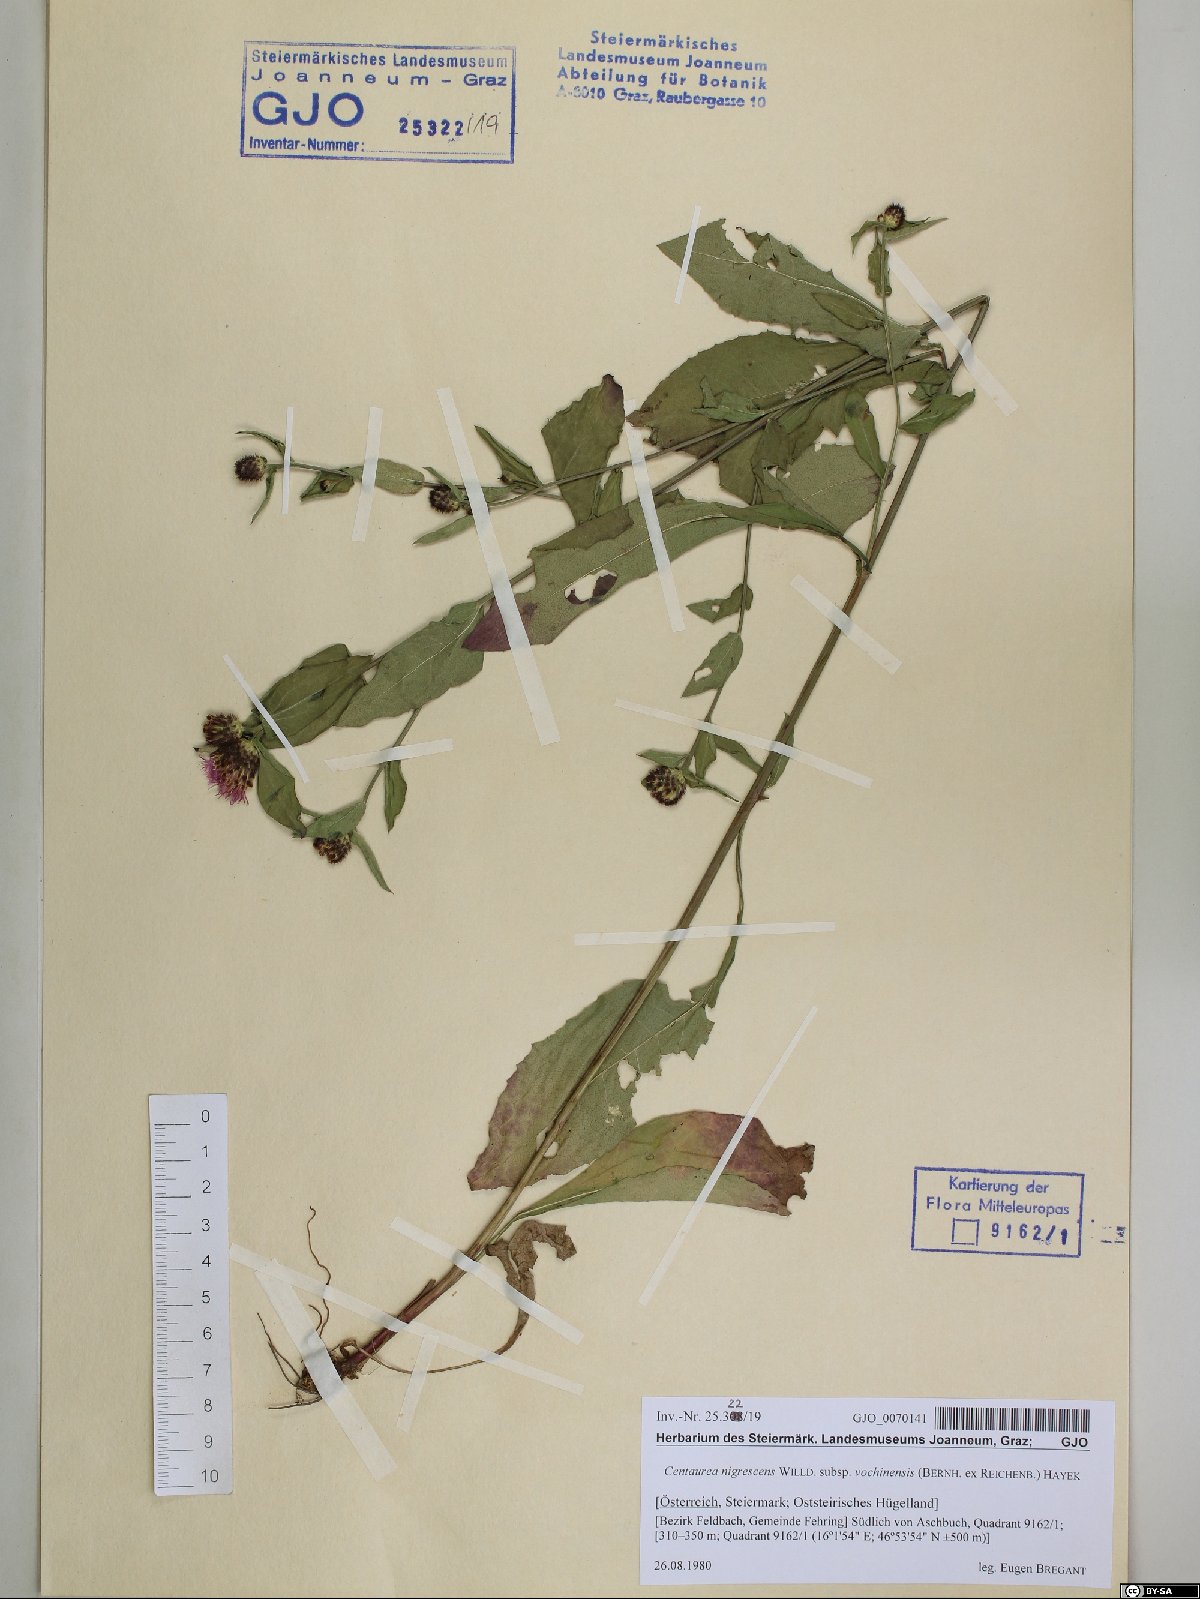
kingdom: Plantae
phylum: Tracheophyta
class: Magnoliopsida
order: Asterales
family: Asteraceae
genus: Centaurea
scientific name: Centaurea carniolica
